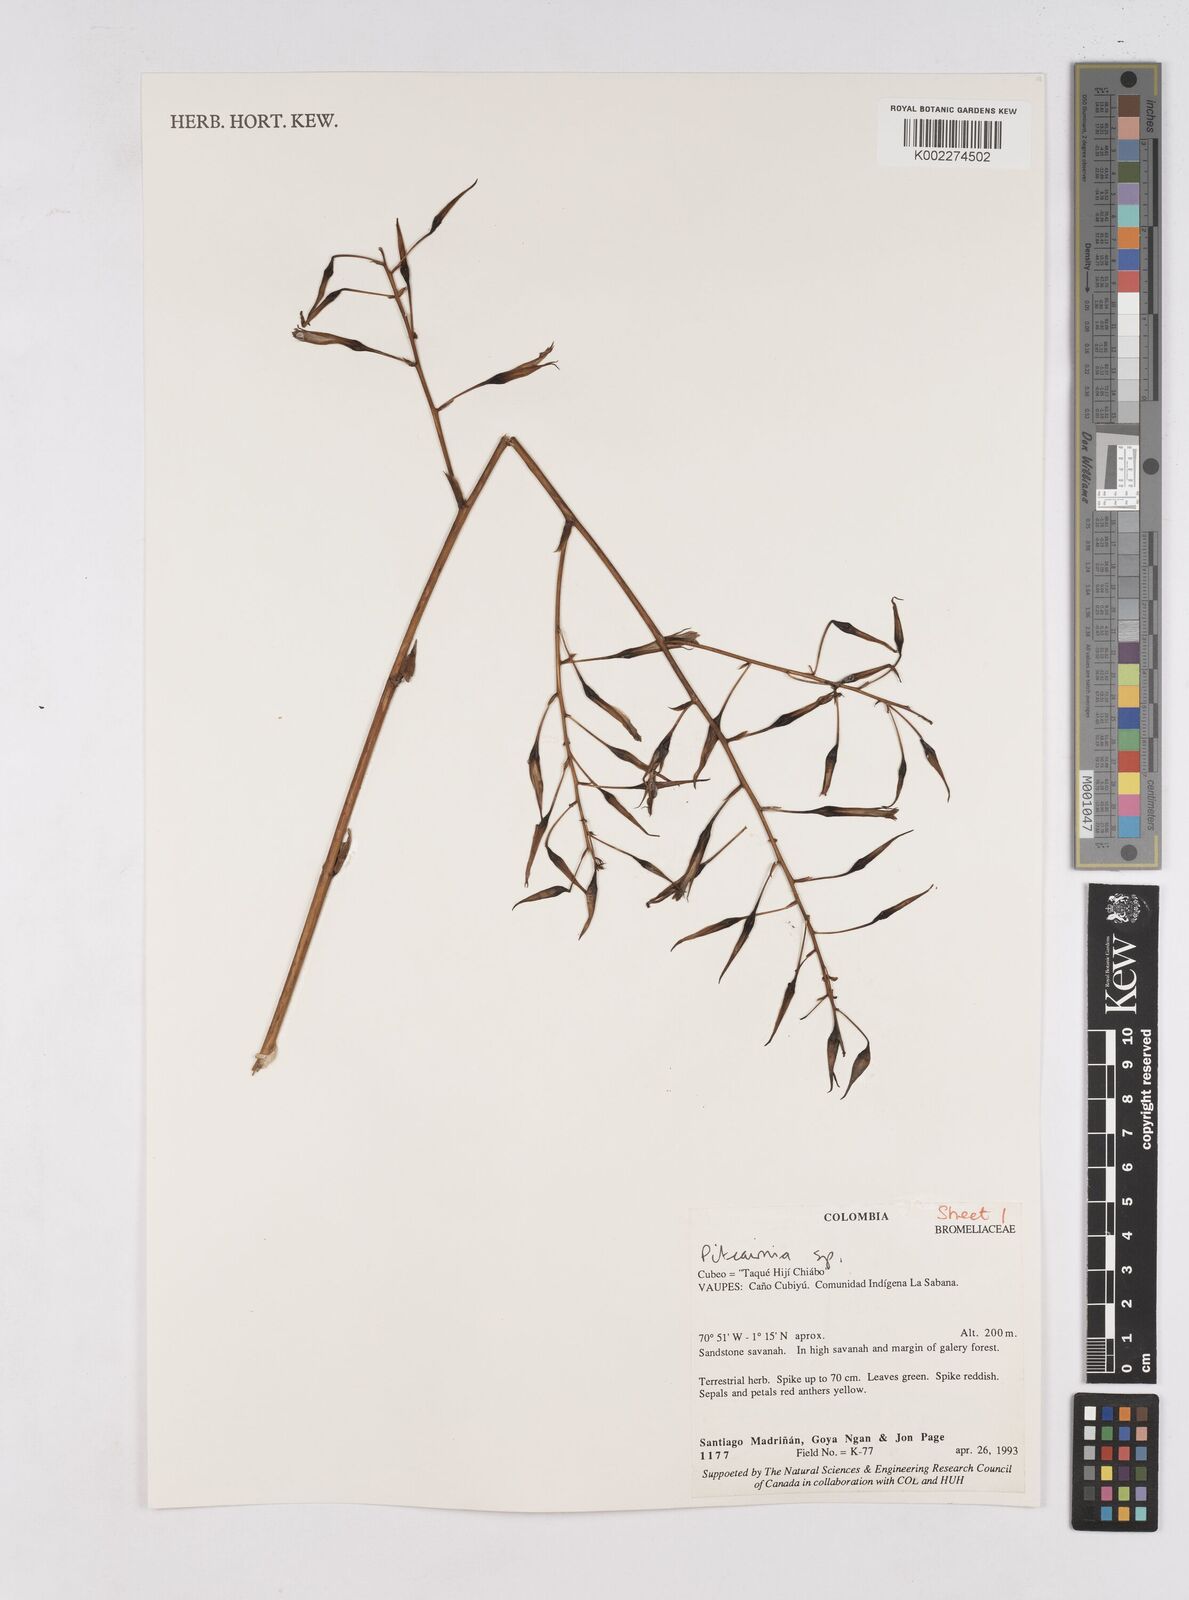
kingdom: Plantae
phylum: Tracheophyta
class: Liliopsida
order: Poales
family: Bromeliaceae
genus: Pitcairnia
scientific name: Pitcairnia
